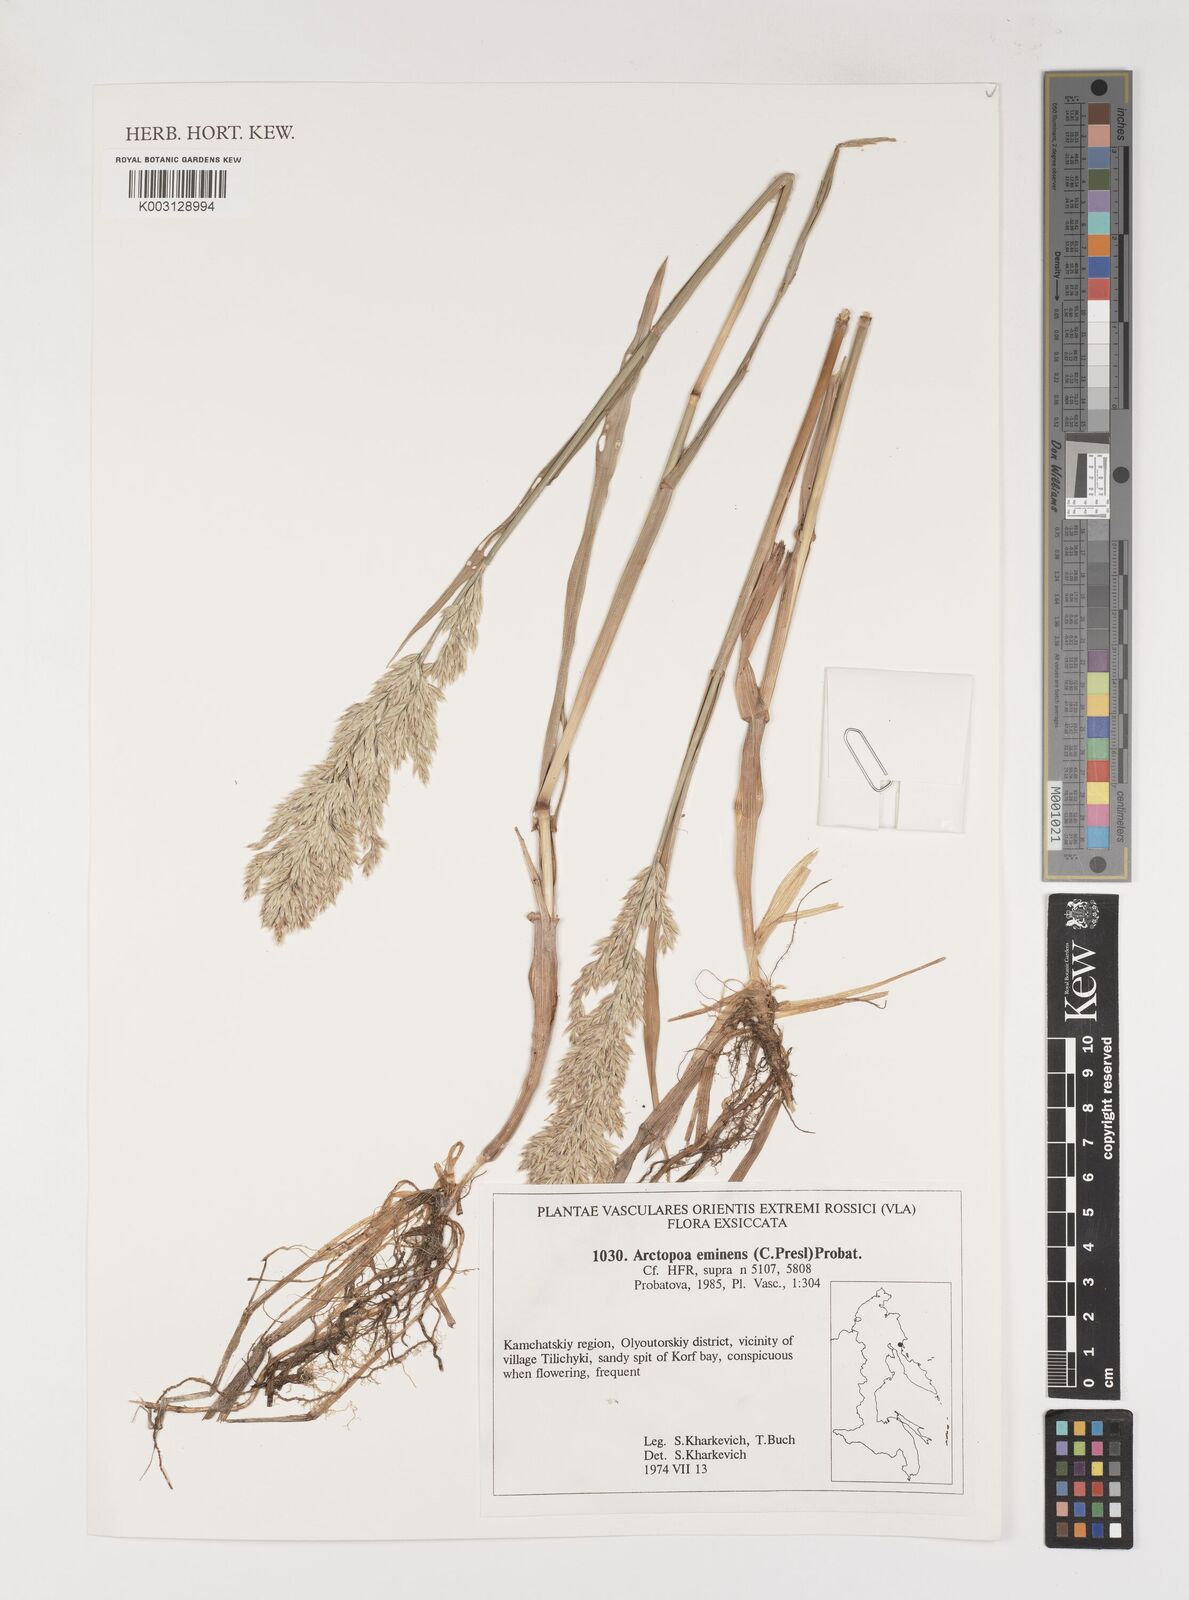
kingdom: Plantae
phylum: Tracheophyta
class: Liliopsida
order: Poales
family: Poaceae
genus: Arctopoa
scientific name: Arctopoa eminens
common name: Eminent bluegrass
